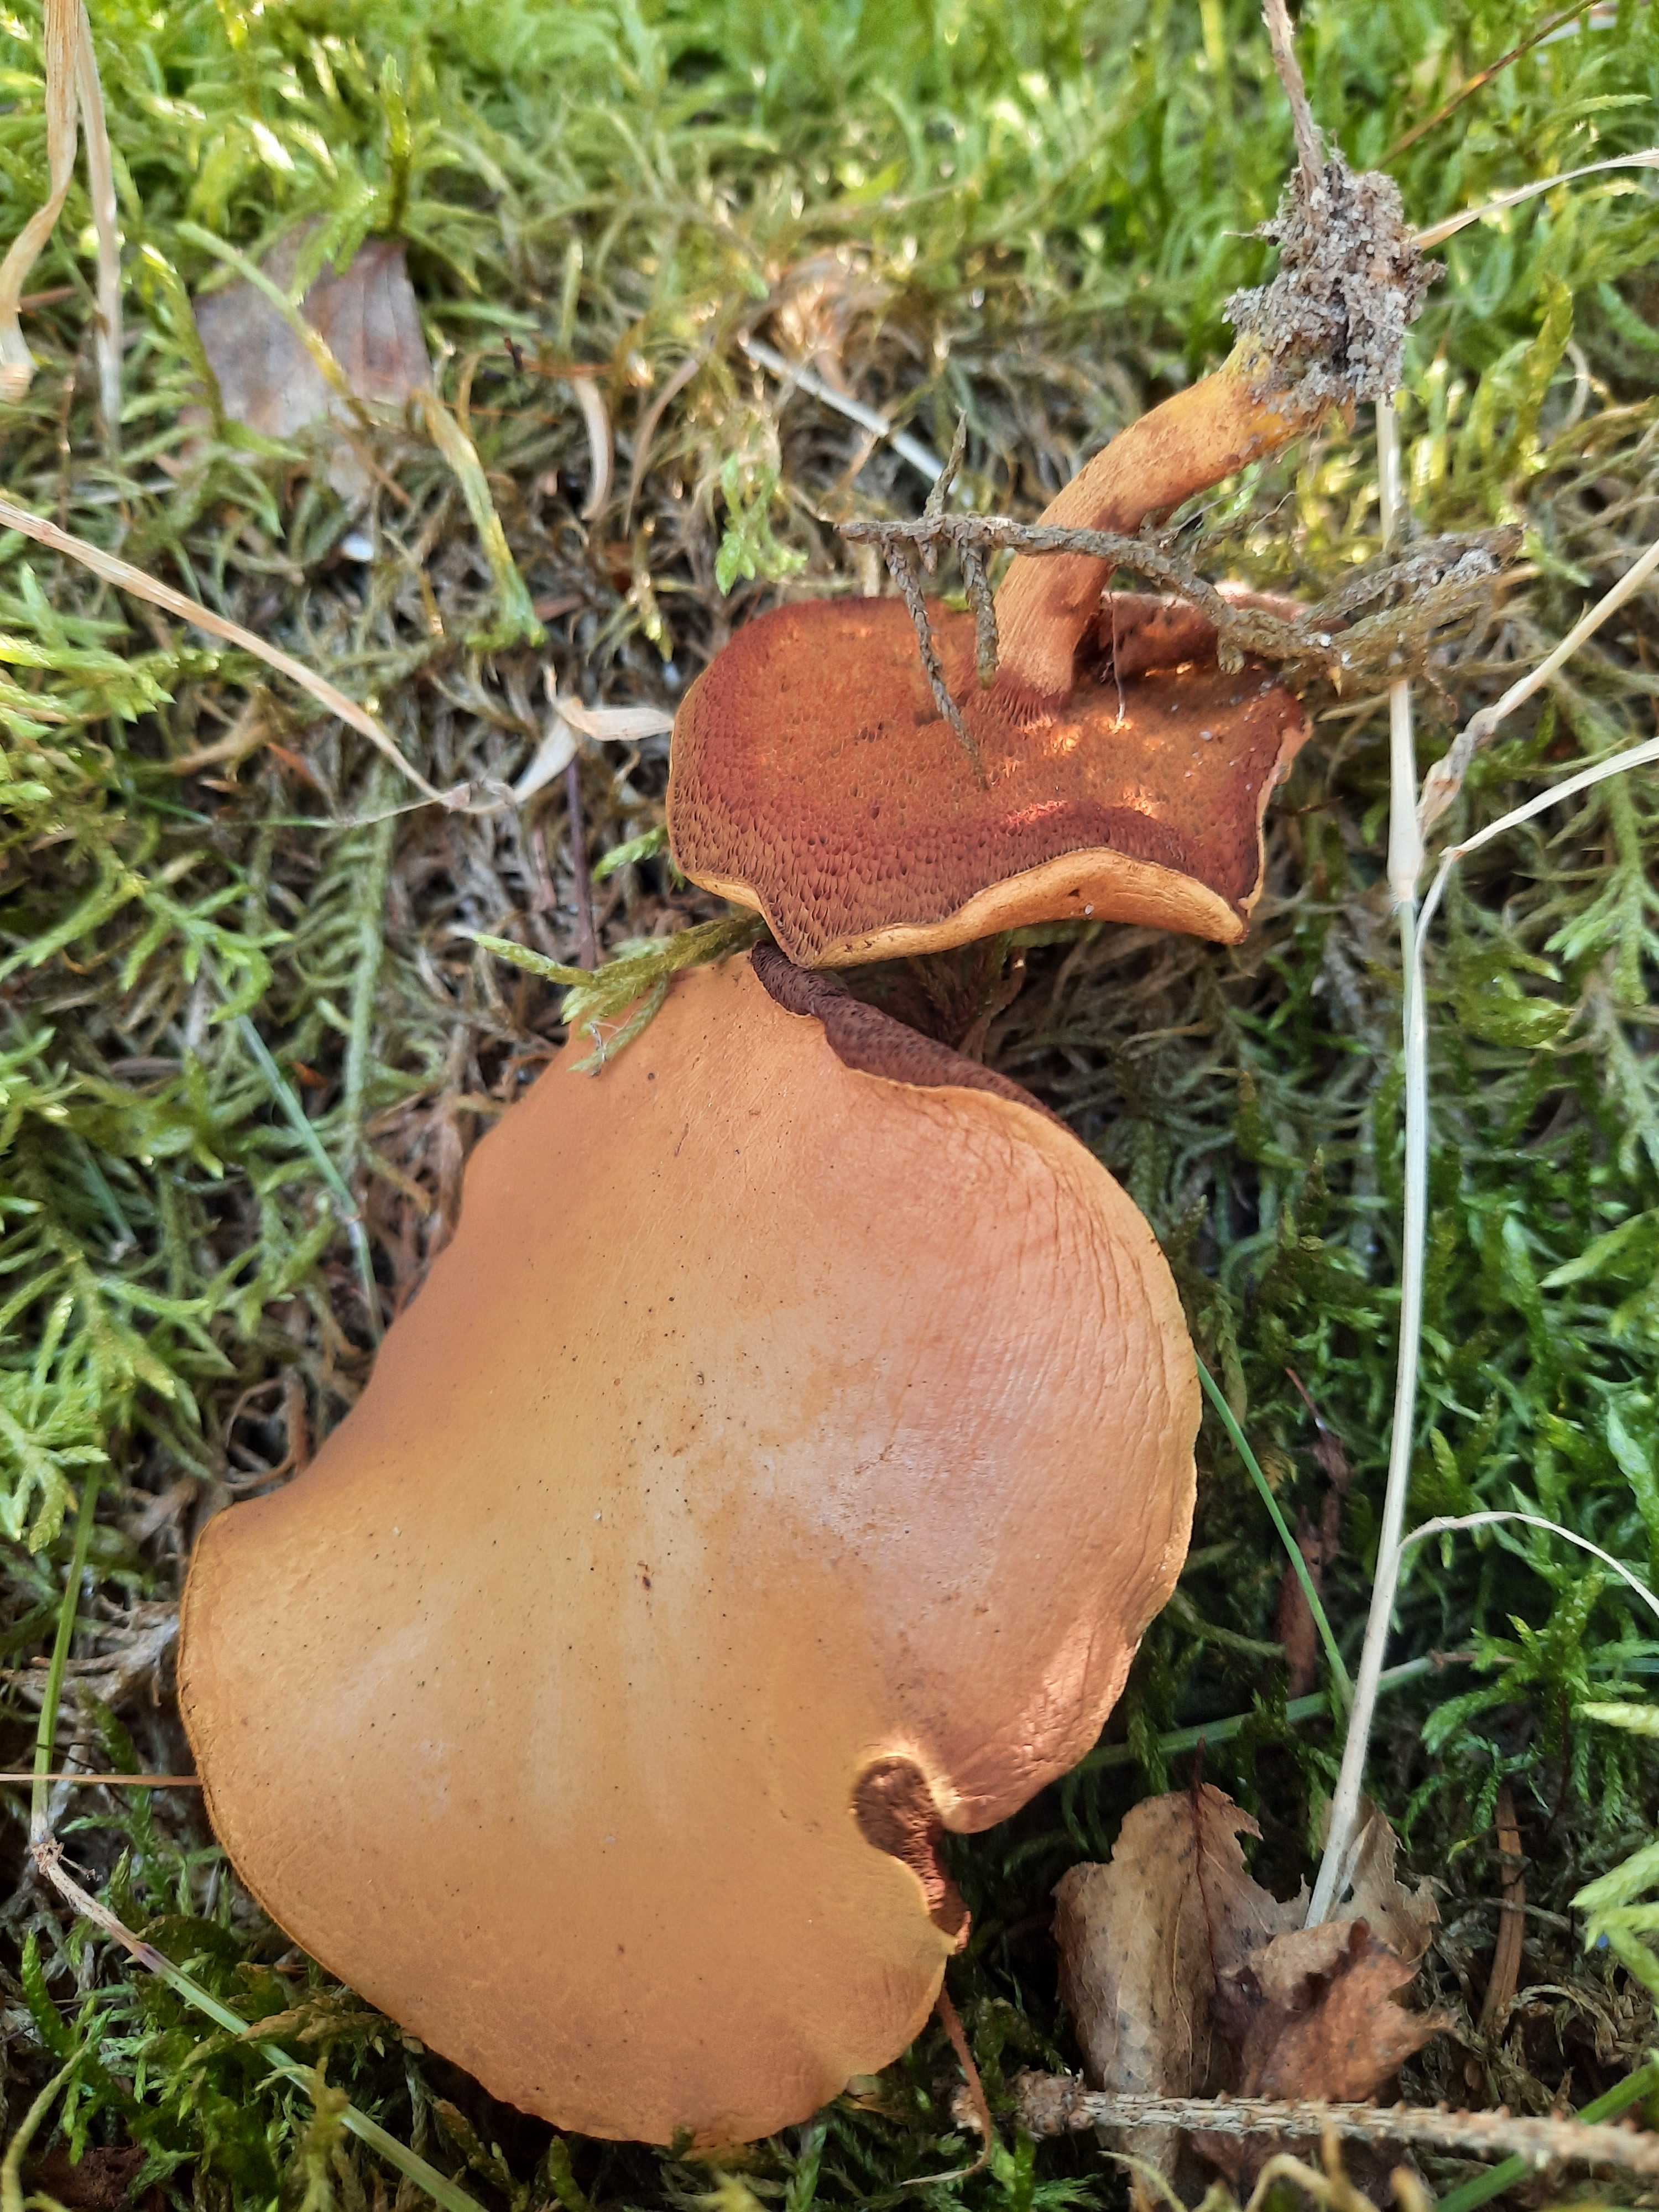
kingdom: Fungi
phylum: Basidiomycota
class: Agaricomycetes
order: Boletales
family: Boletaceae
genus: Chalciporus
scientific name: Chalciporus piperatus
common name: peberrørhat
